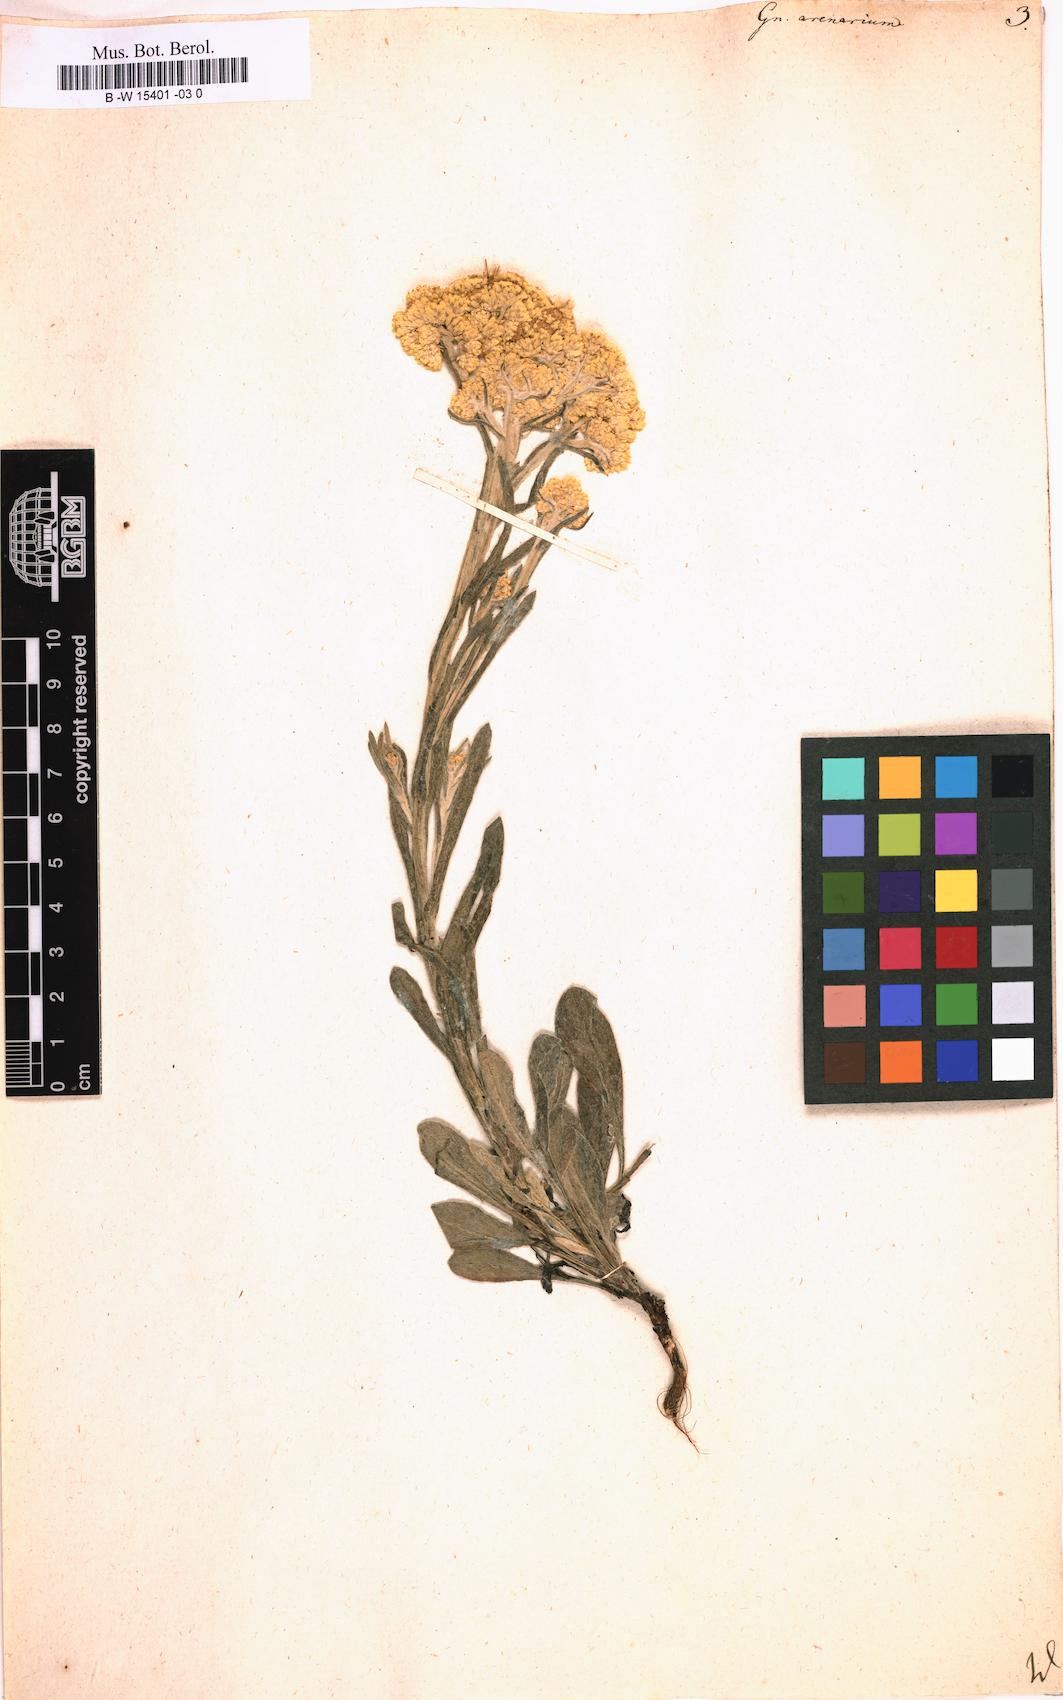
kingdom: Plantae
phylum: Tracheophyta
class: Magnoliopsida
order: Asterales
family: Asteraceae
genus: Helichrysum
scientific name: Helichrysum arenarium
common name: Strawflower
